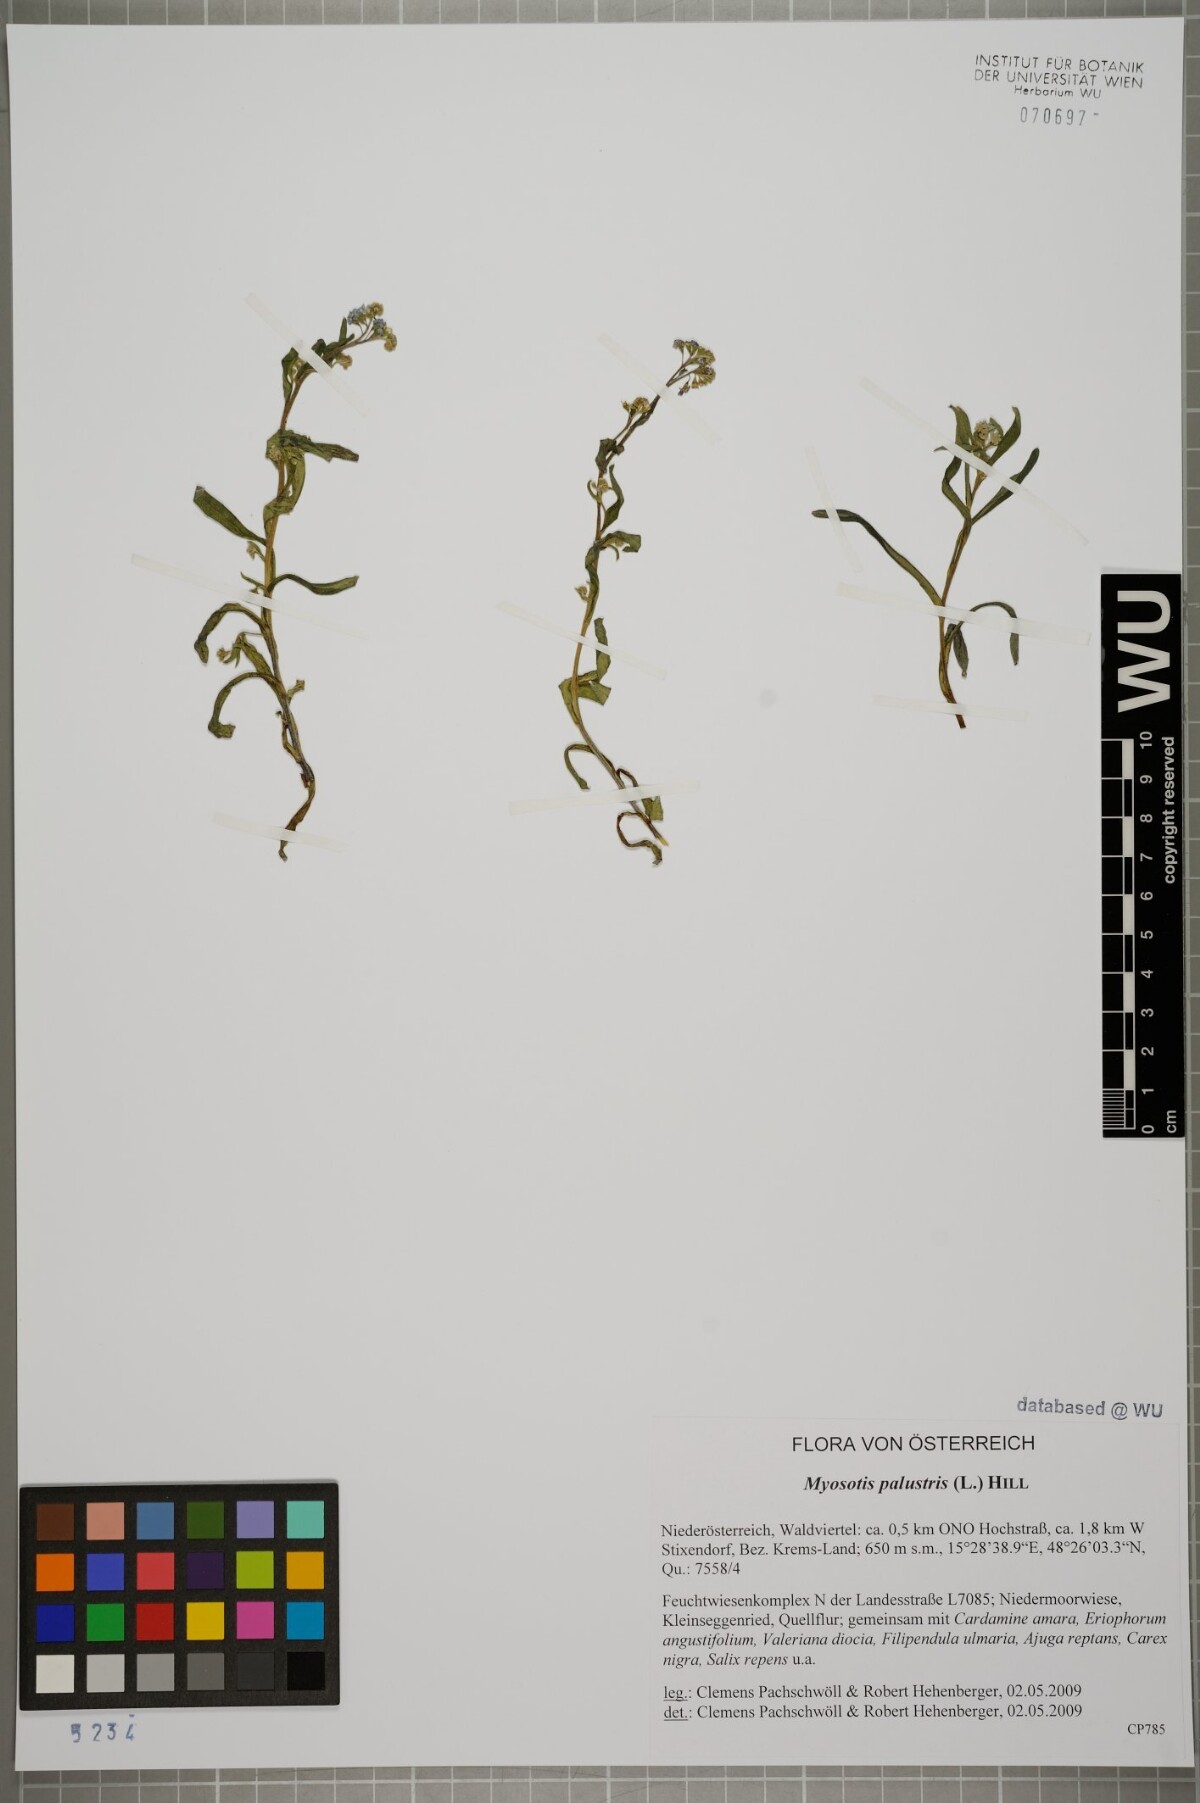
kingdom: Plantae
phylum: Tracheophyta
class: Magnoliopsida
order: Boraginales
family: Boraginaceae
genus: Myosotis
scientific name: Myosotis scorpioides
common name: Water forget-me-not
